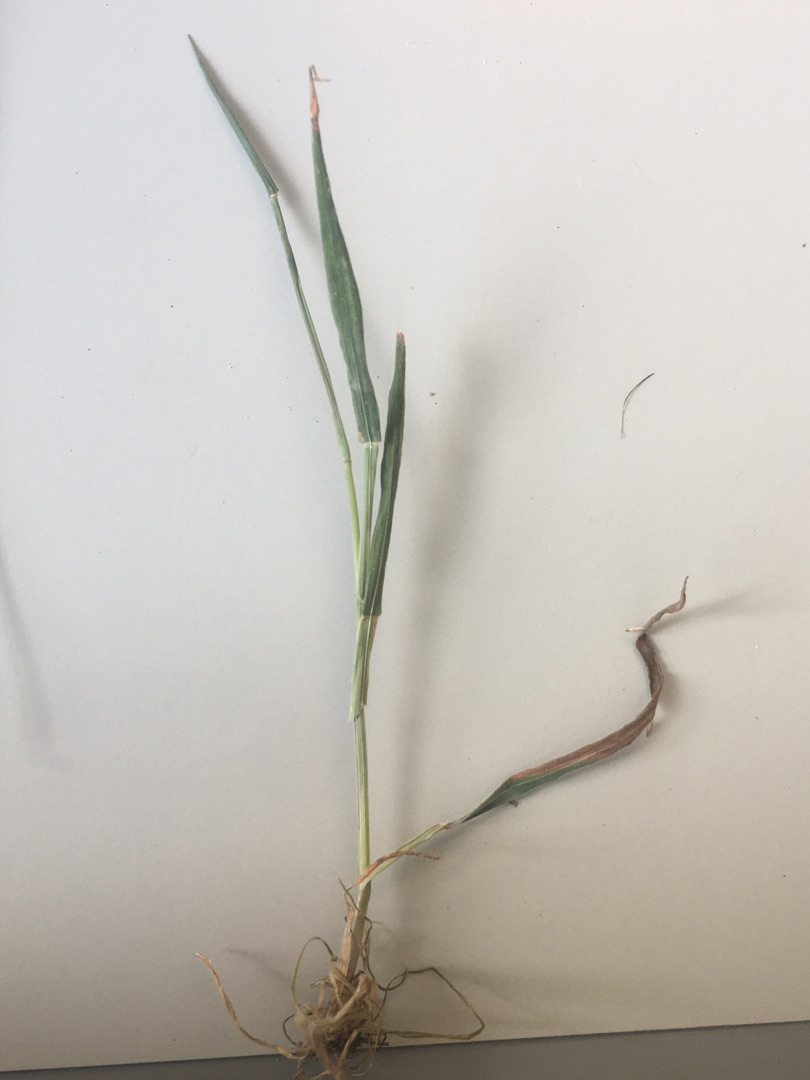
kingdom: Plantae
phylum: Tracheophyta
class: Liliopsida
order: Poales
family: Poaceae
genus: Holcus
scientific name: Holcus lanatus
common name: Fløjlsgræs
